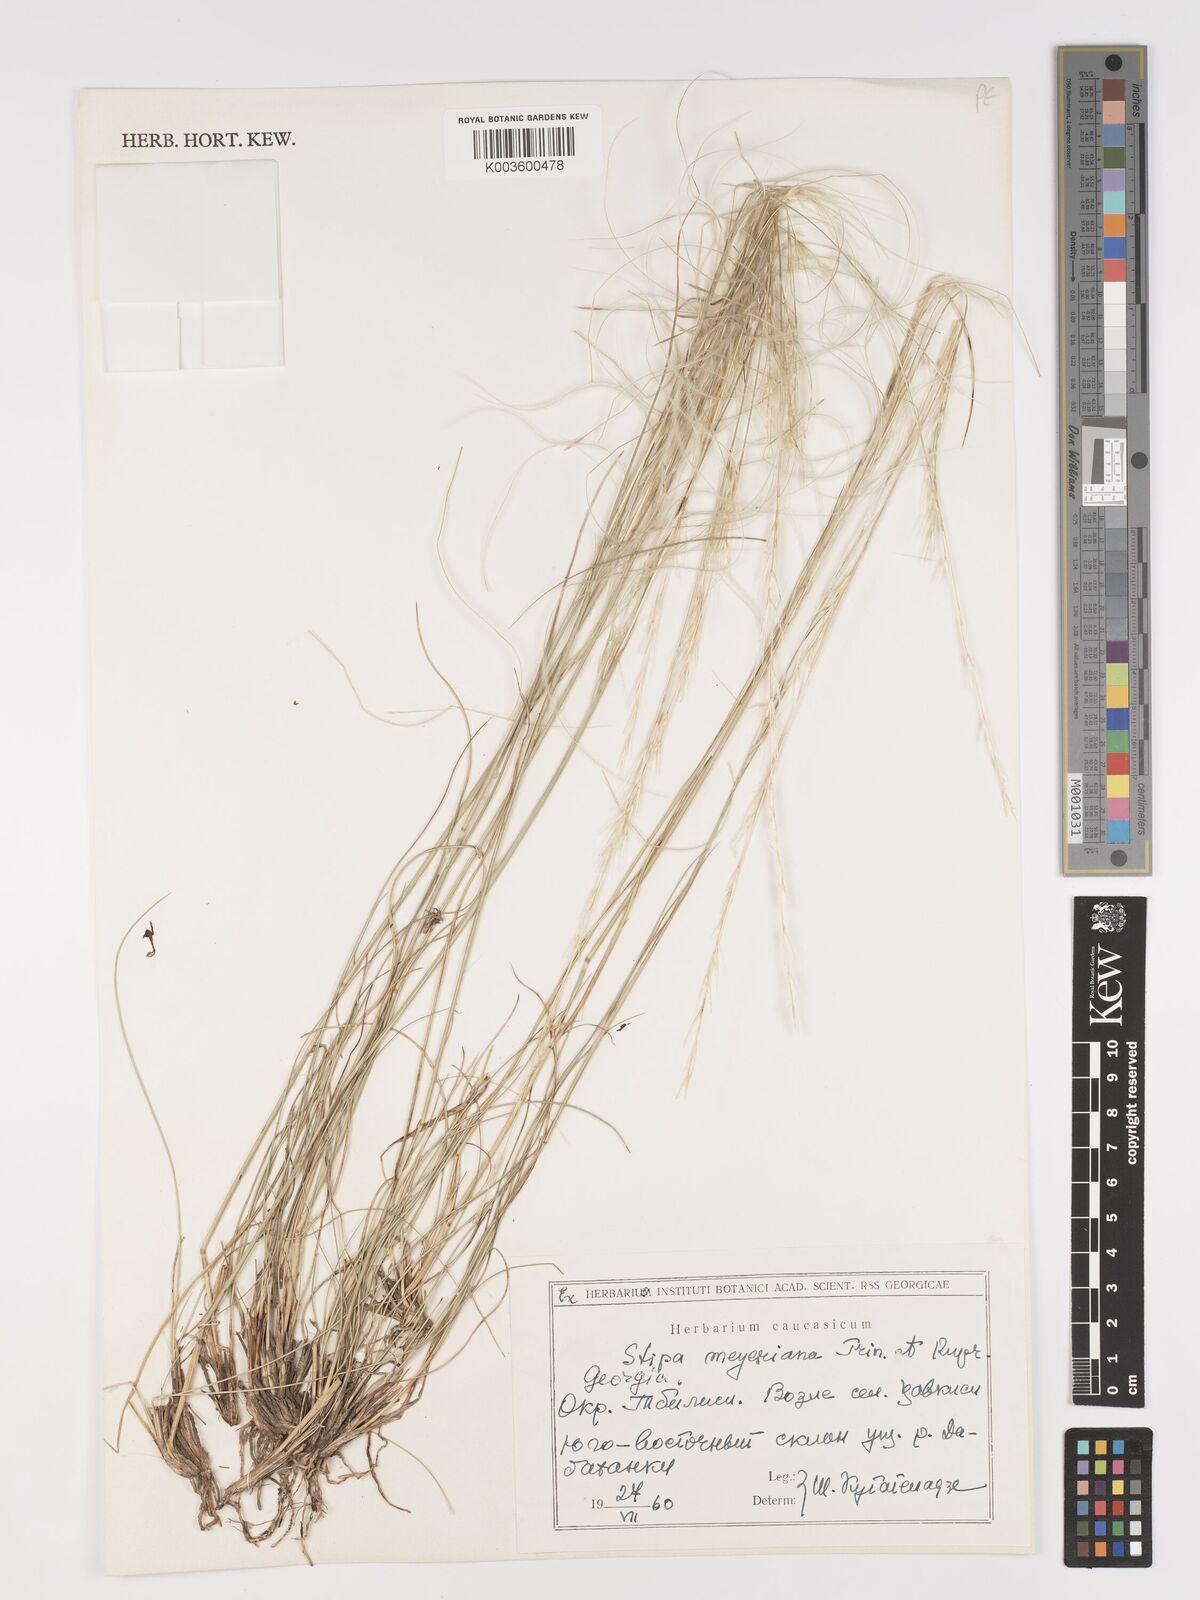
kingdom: Plantae
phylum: Tracheophyta
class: Liliopsida
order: Poales
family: Poaceae
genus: Stipa
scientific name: Stipa arabica
